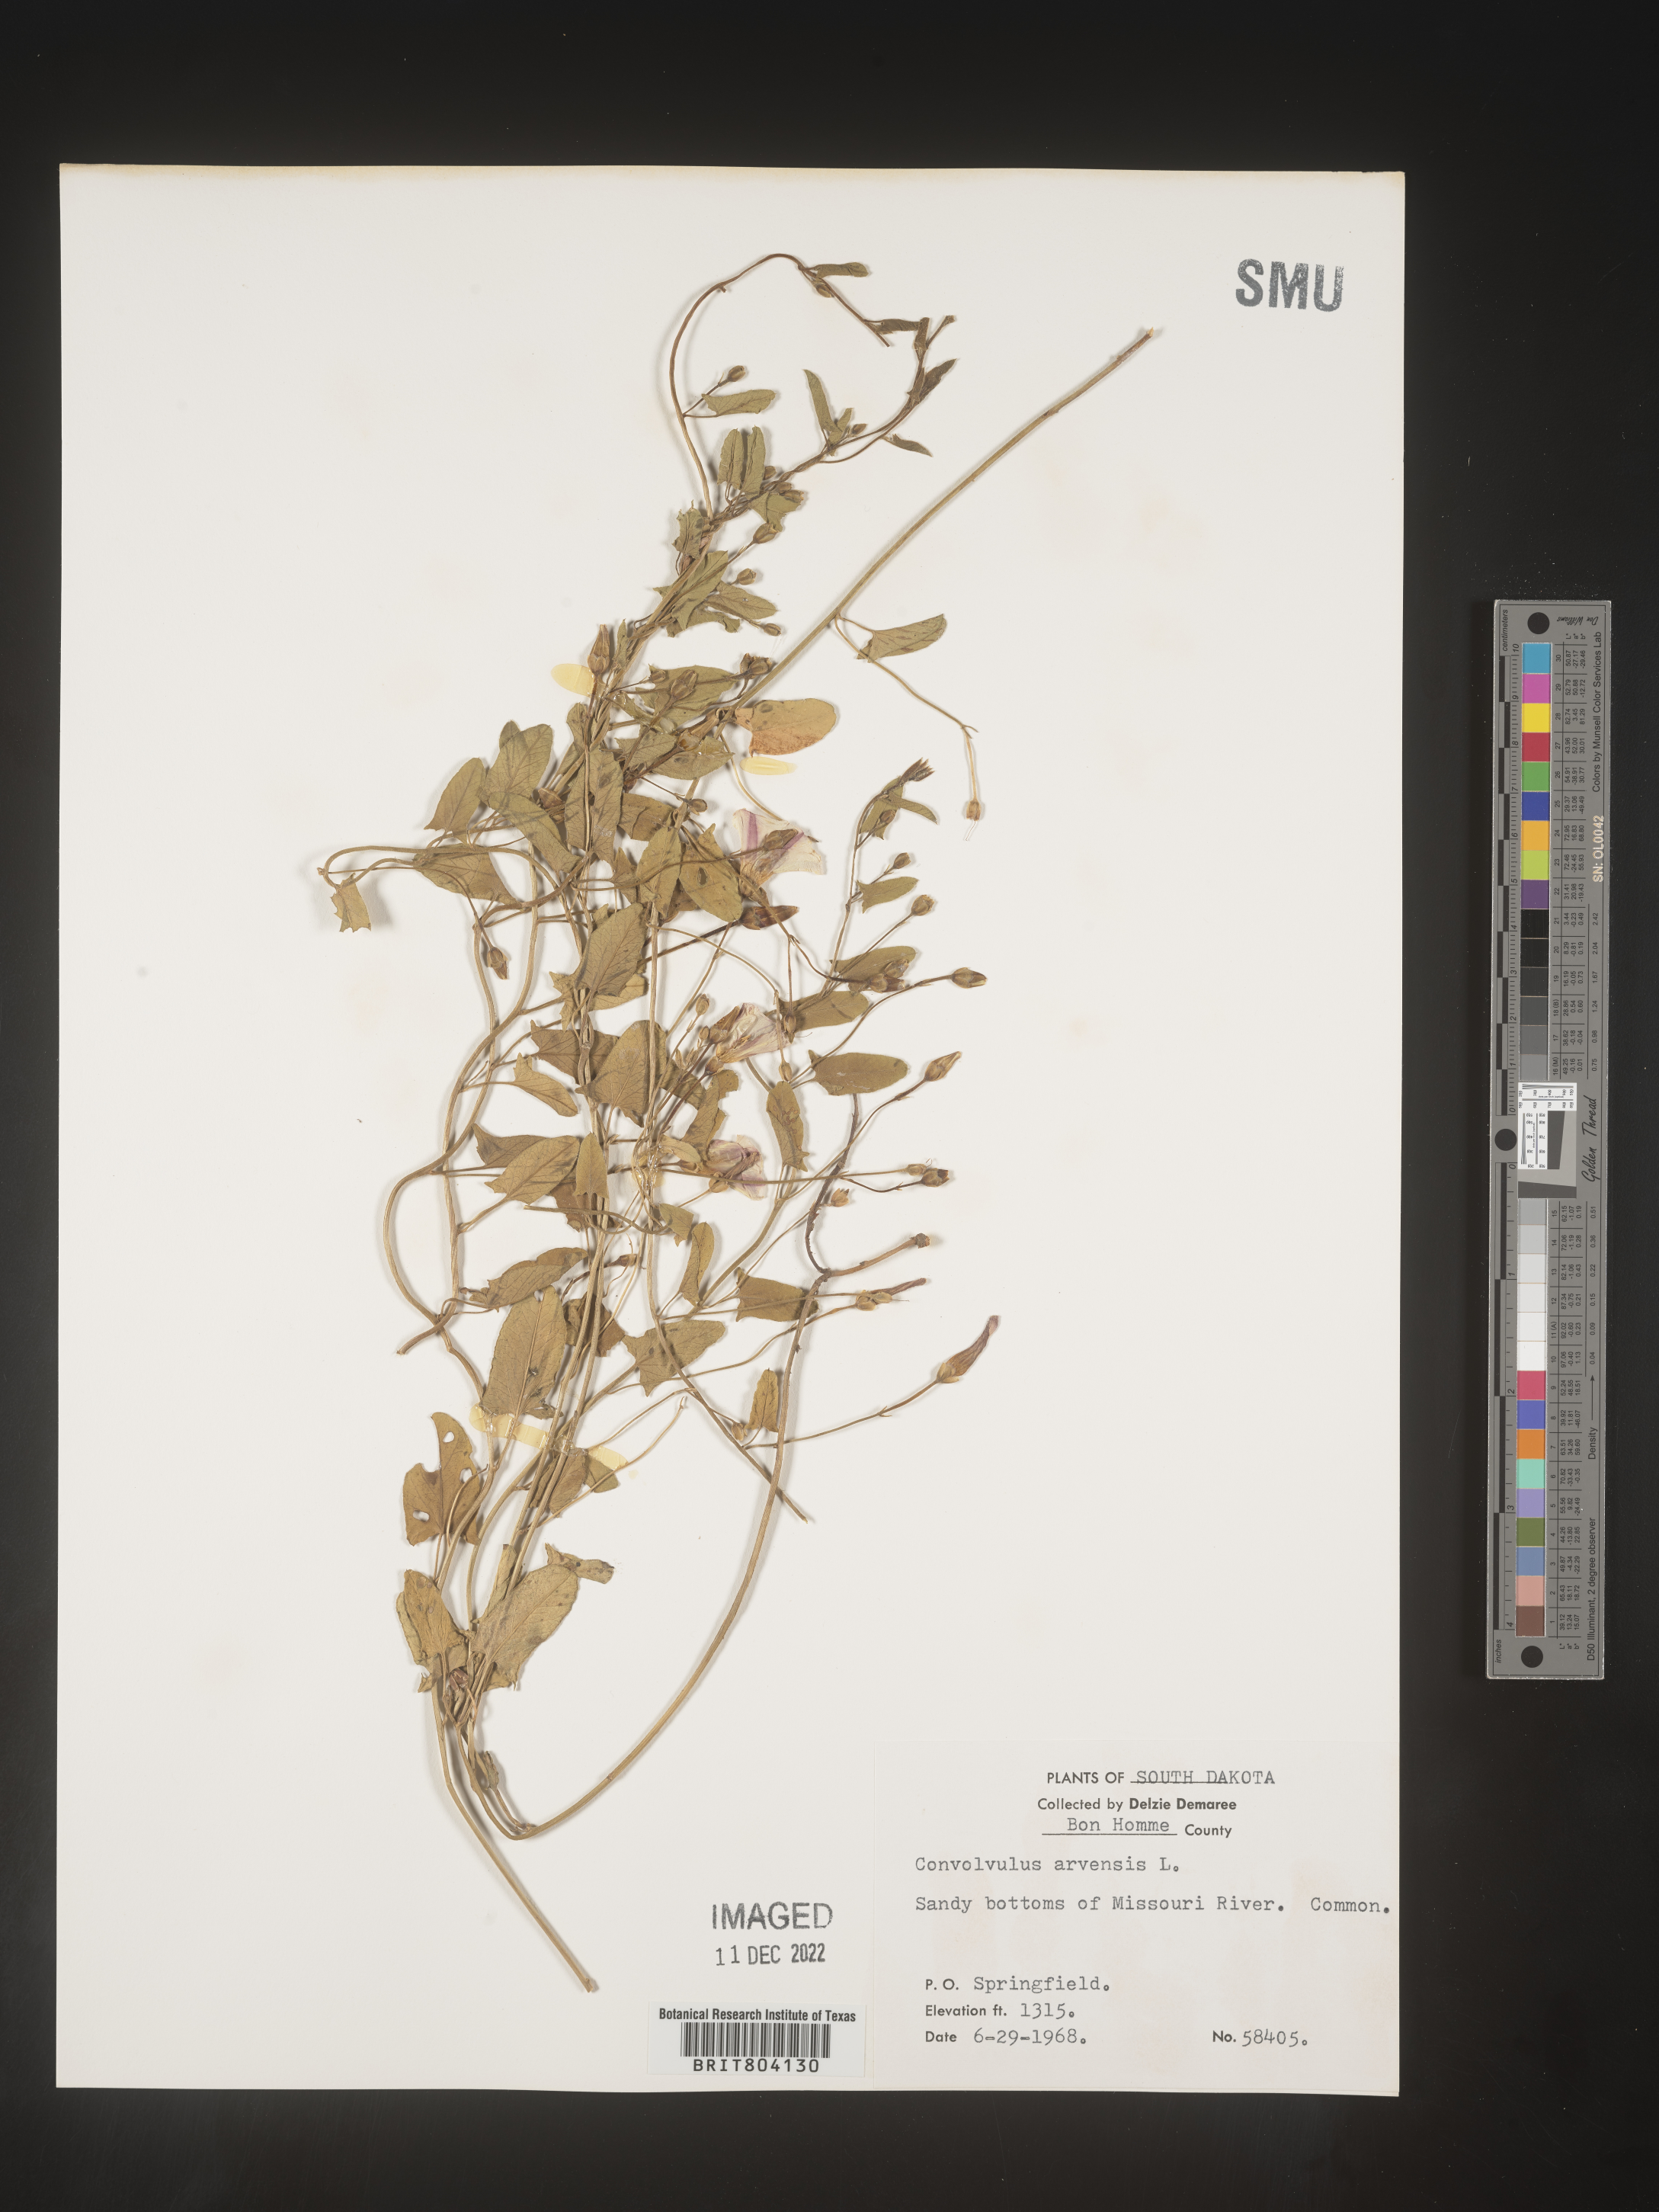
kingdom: Plantae
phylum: Tracheophyta
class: Magnoliopsida
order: Solanales
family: Convolvulaceae
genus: Convolvulus
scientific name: Convolvulus arvensis
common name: Field bindweed
